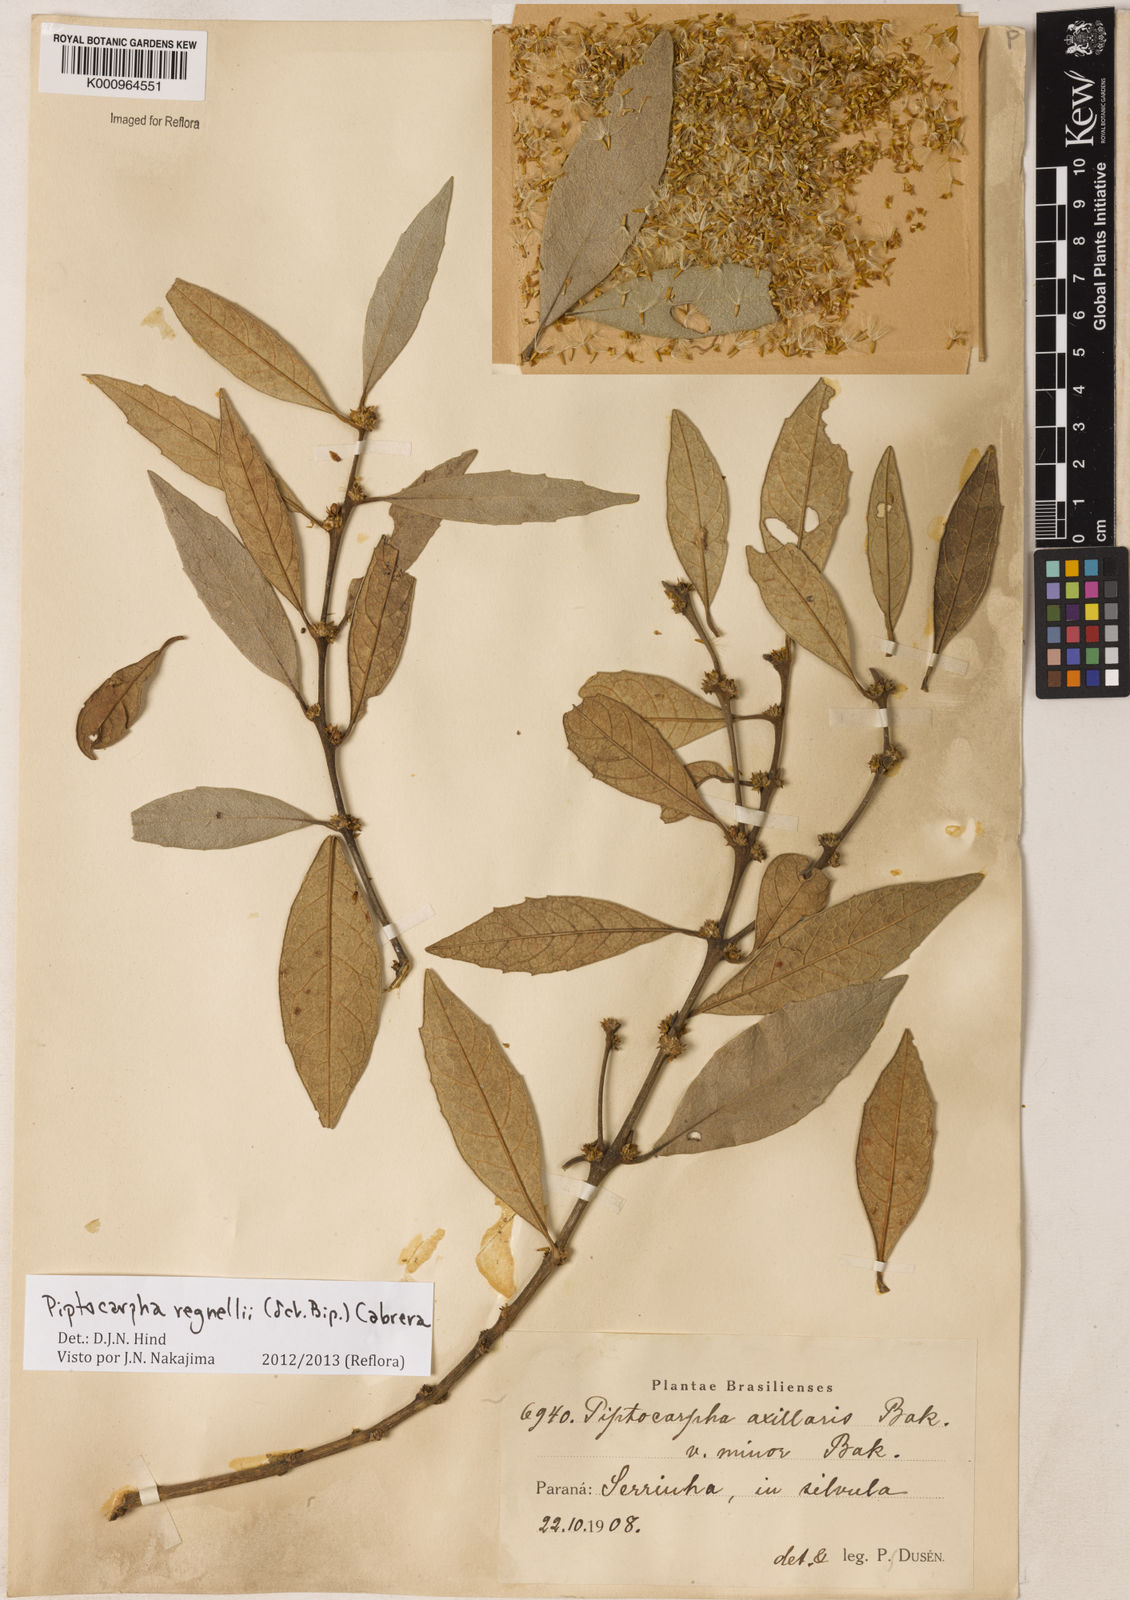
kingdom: Plantae
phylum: Tracheophyta
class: Magnoliopsida
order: Asterales
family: Asteraceae
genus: Piptocarpha
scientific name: Piptocarpha regnellii
